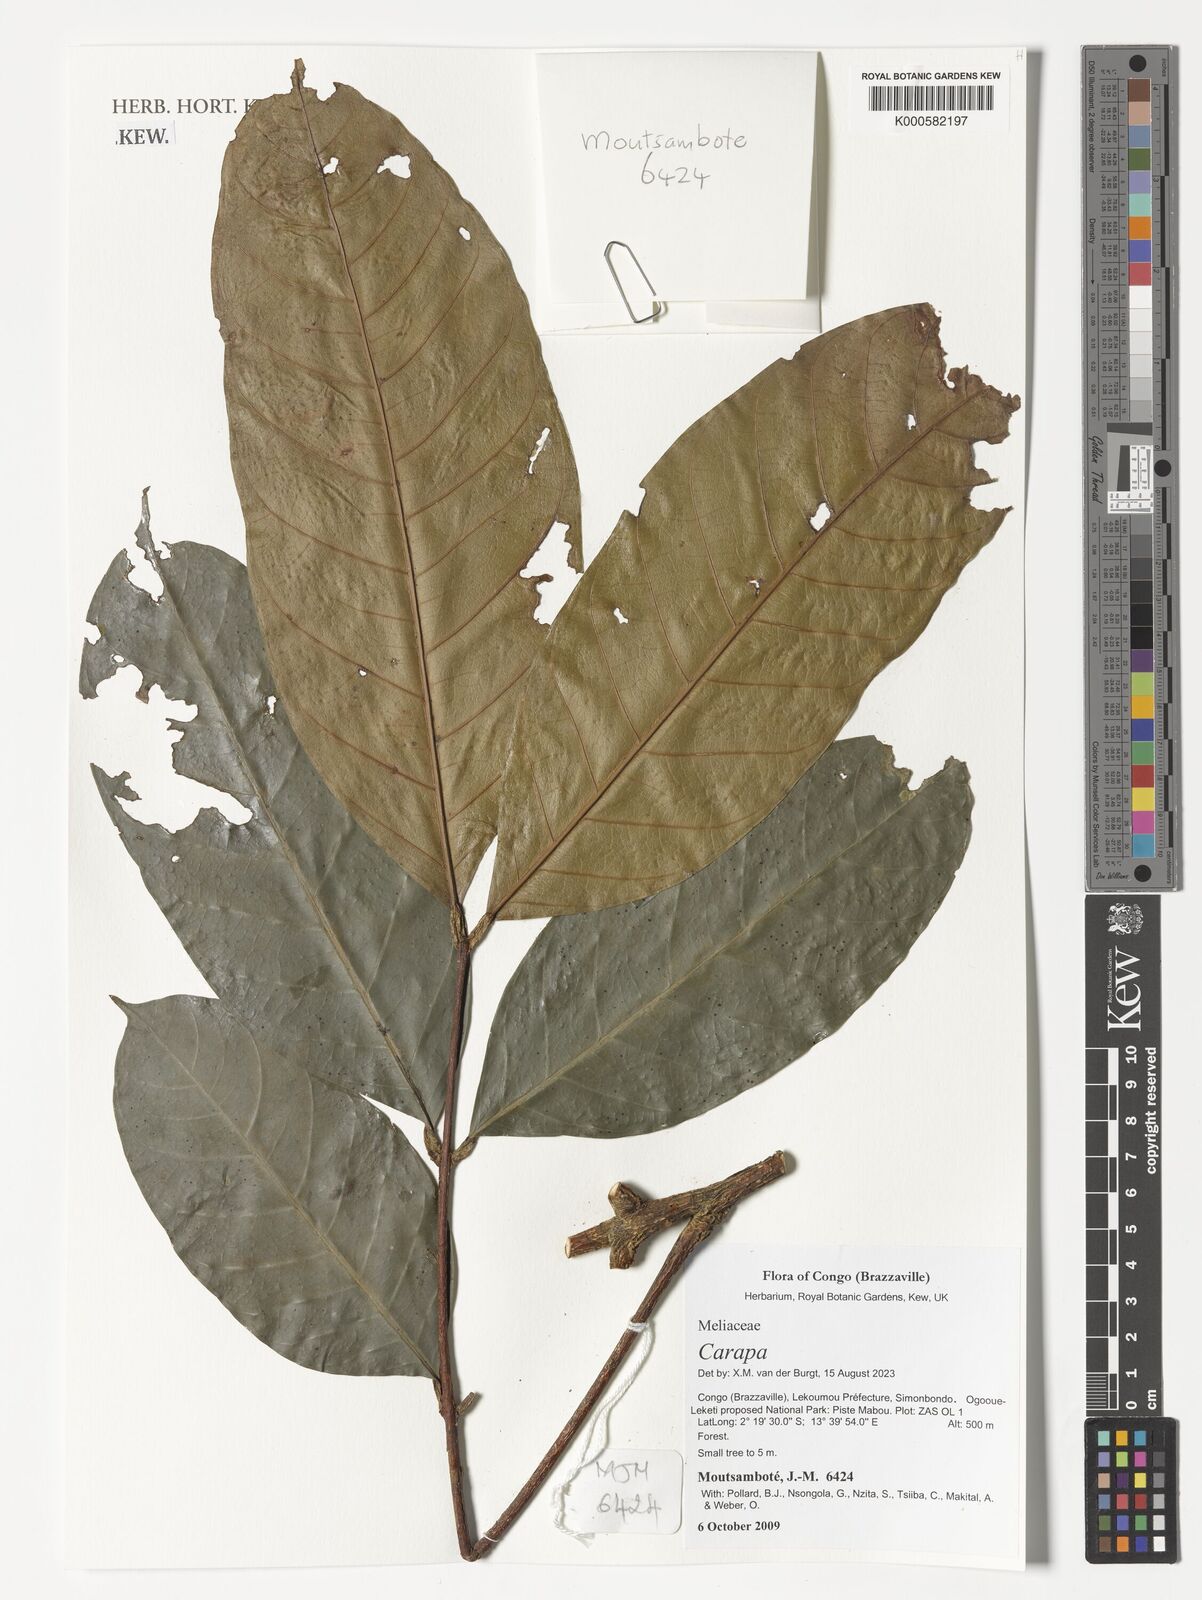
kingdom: Plantae
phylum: Tracheophyta
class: Magnoliopsida
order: Sapindales
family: Meliaceae
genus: Carapa
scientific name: Carapa
